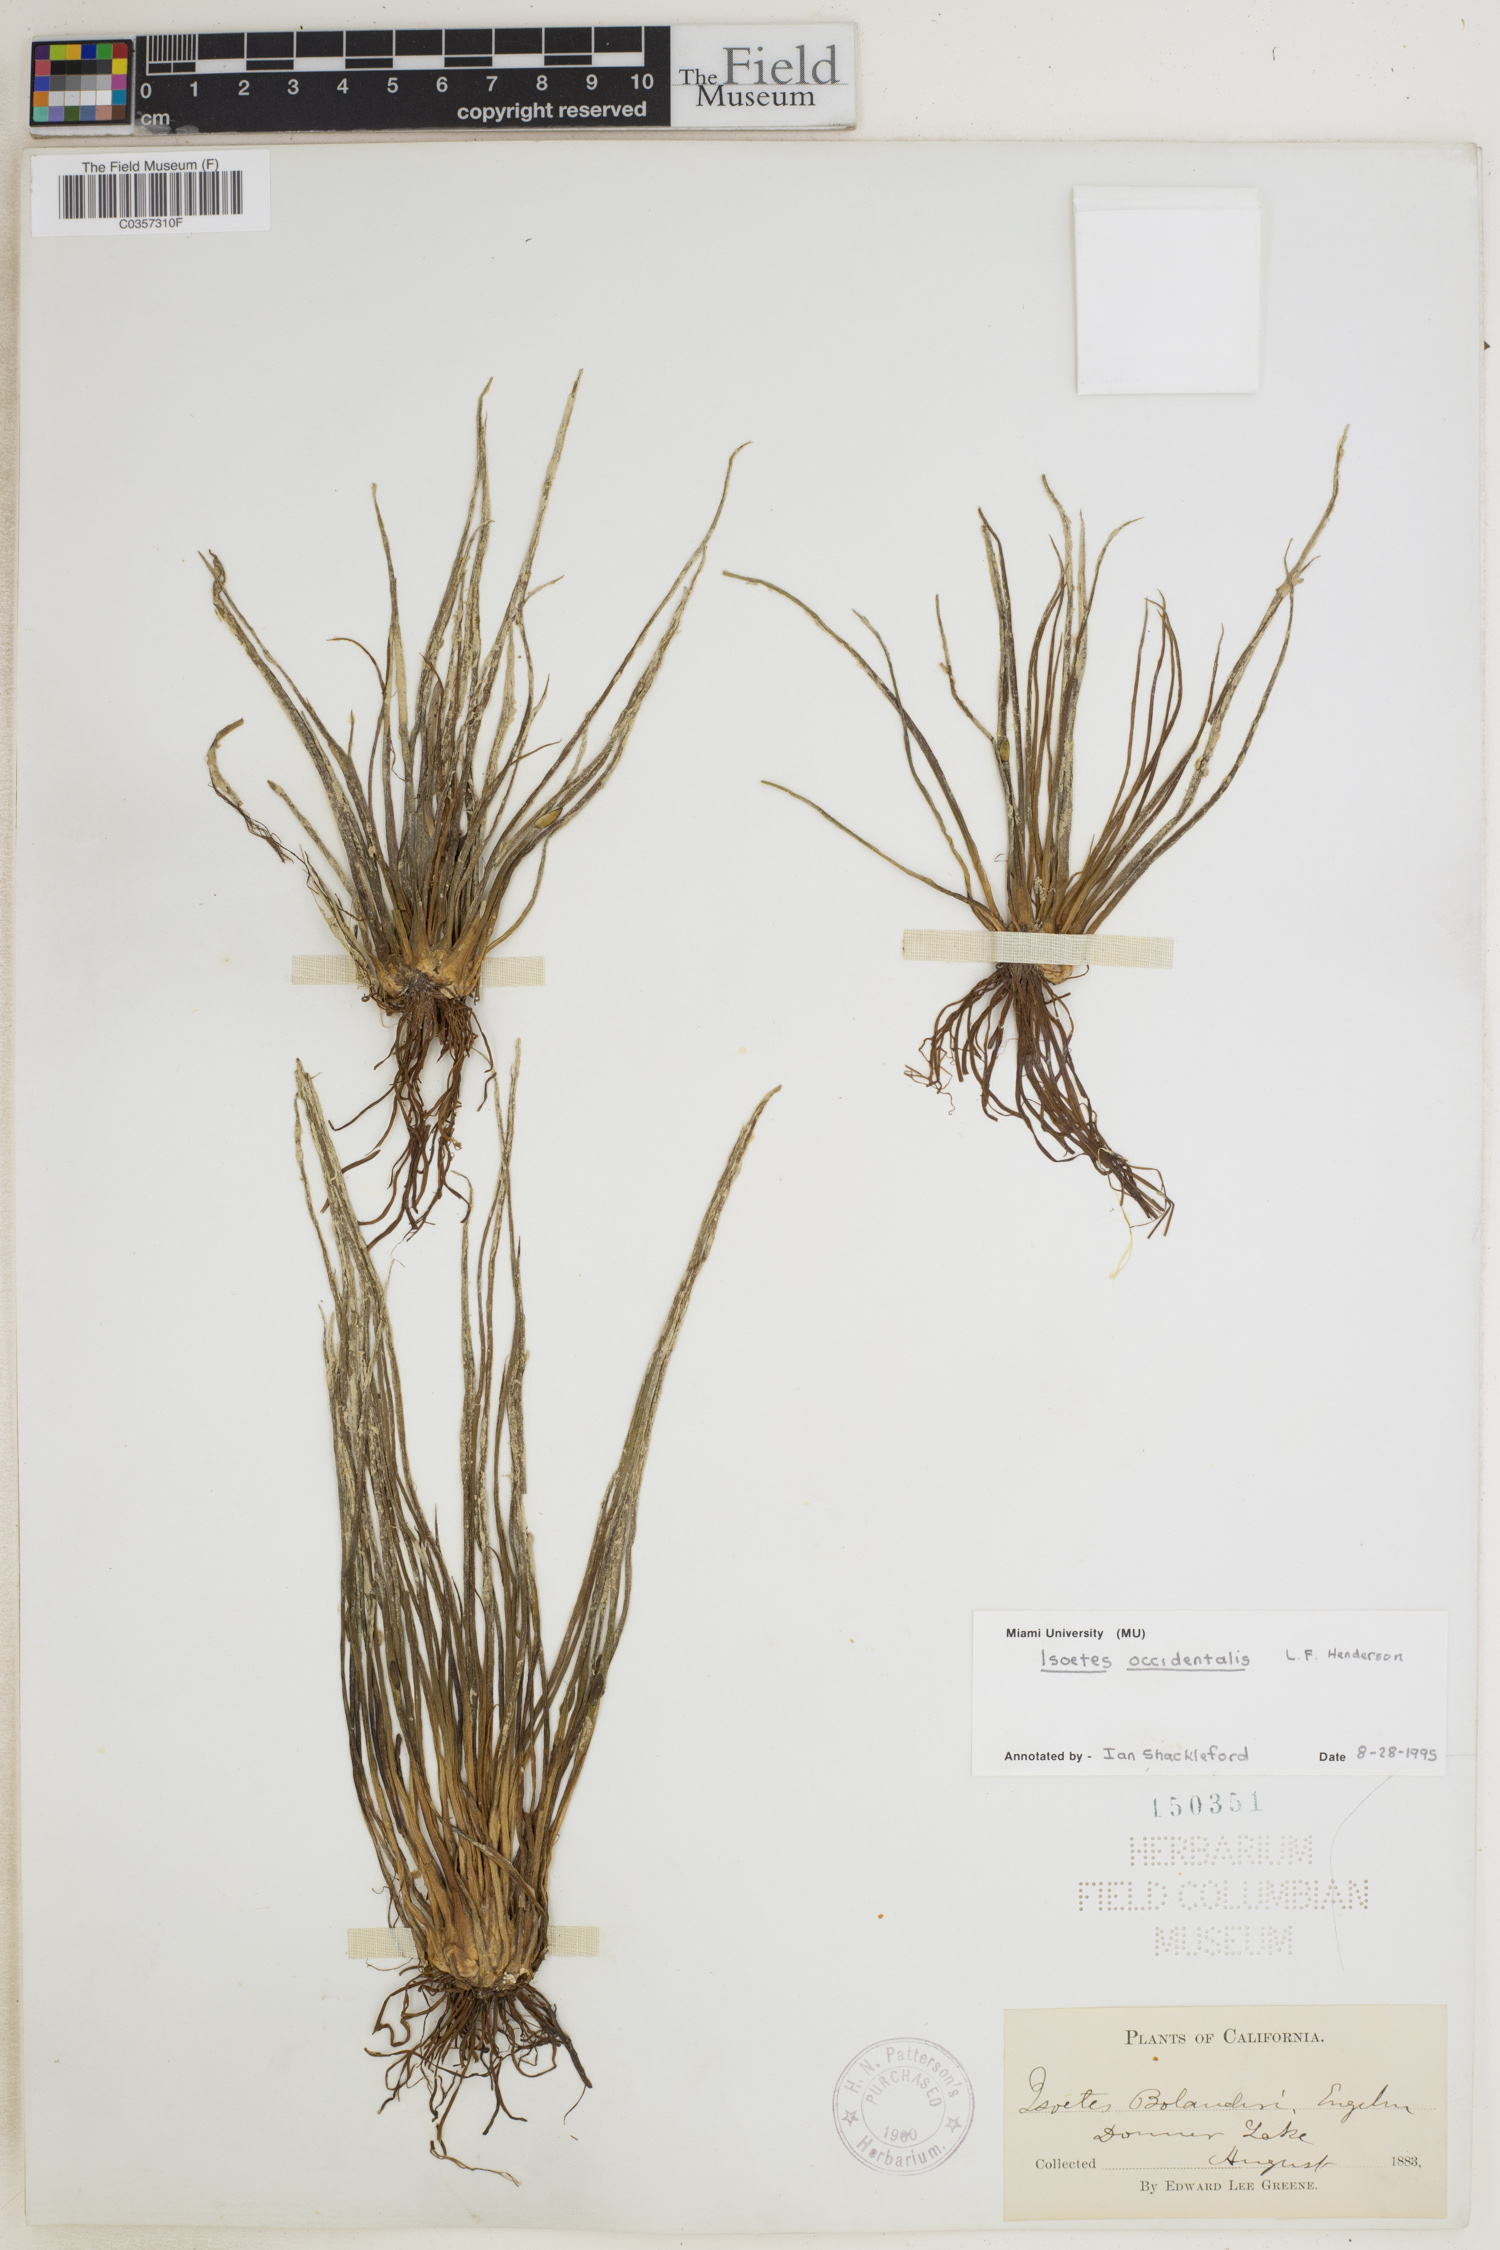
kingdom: Plantae
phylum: Tracheophyta
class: Lycopodiopsida
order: Isoetales
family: Isoetaceae
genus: Isoetes
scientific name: Isoetes occidentalis
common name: Western quillwort
